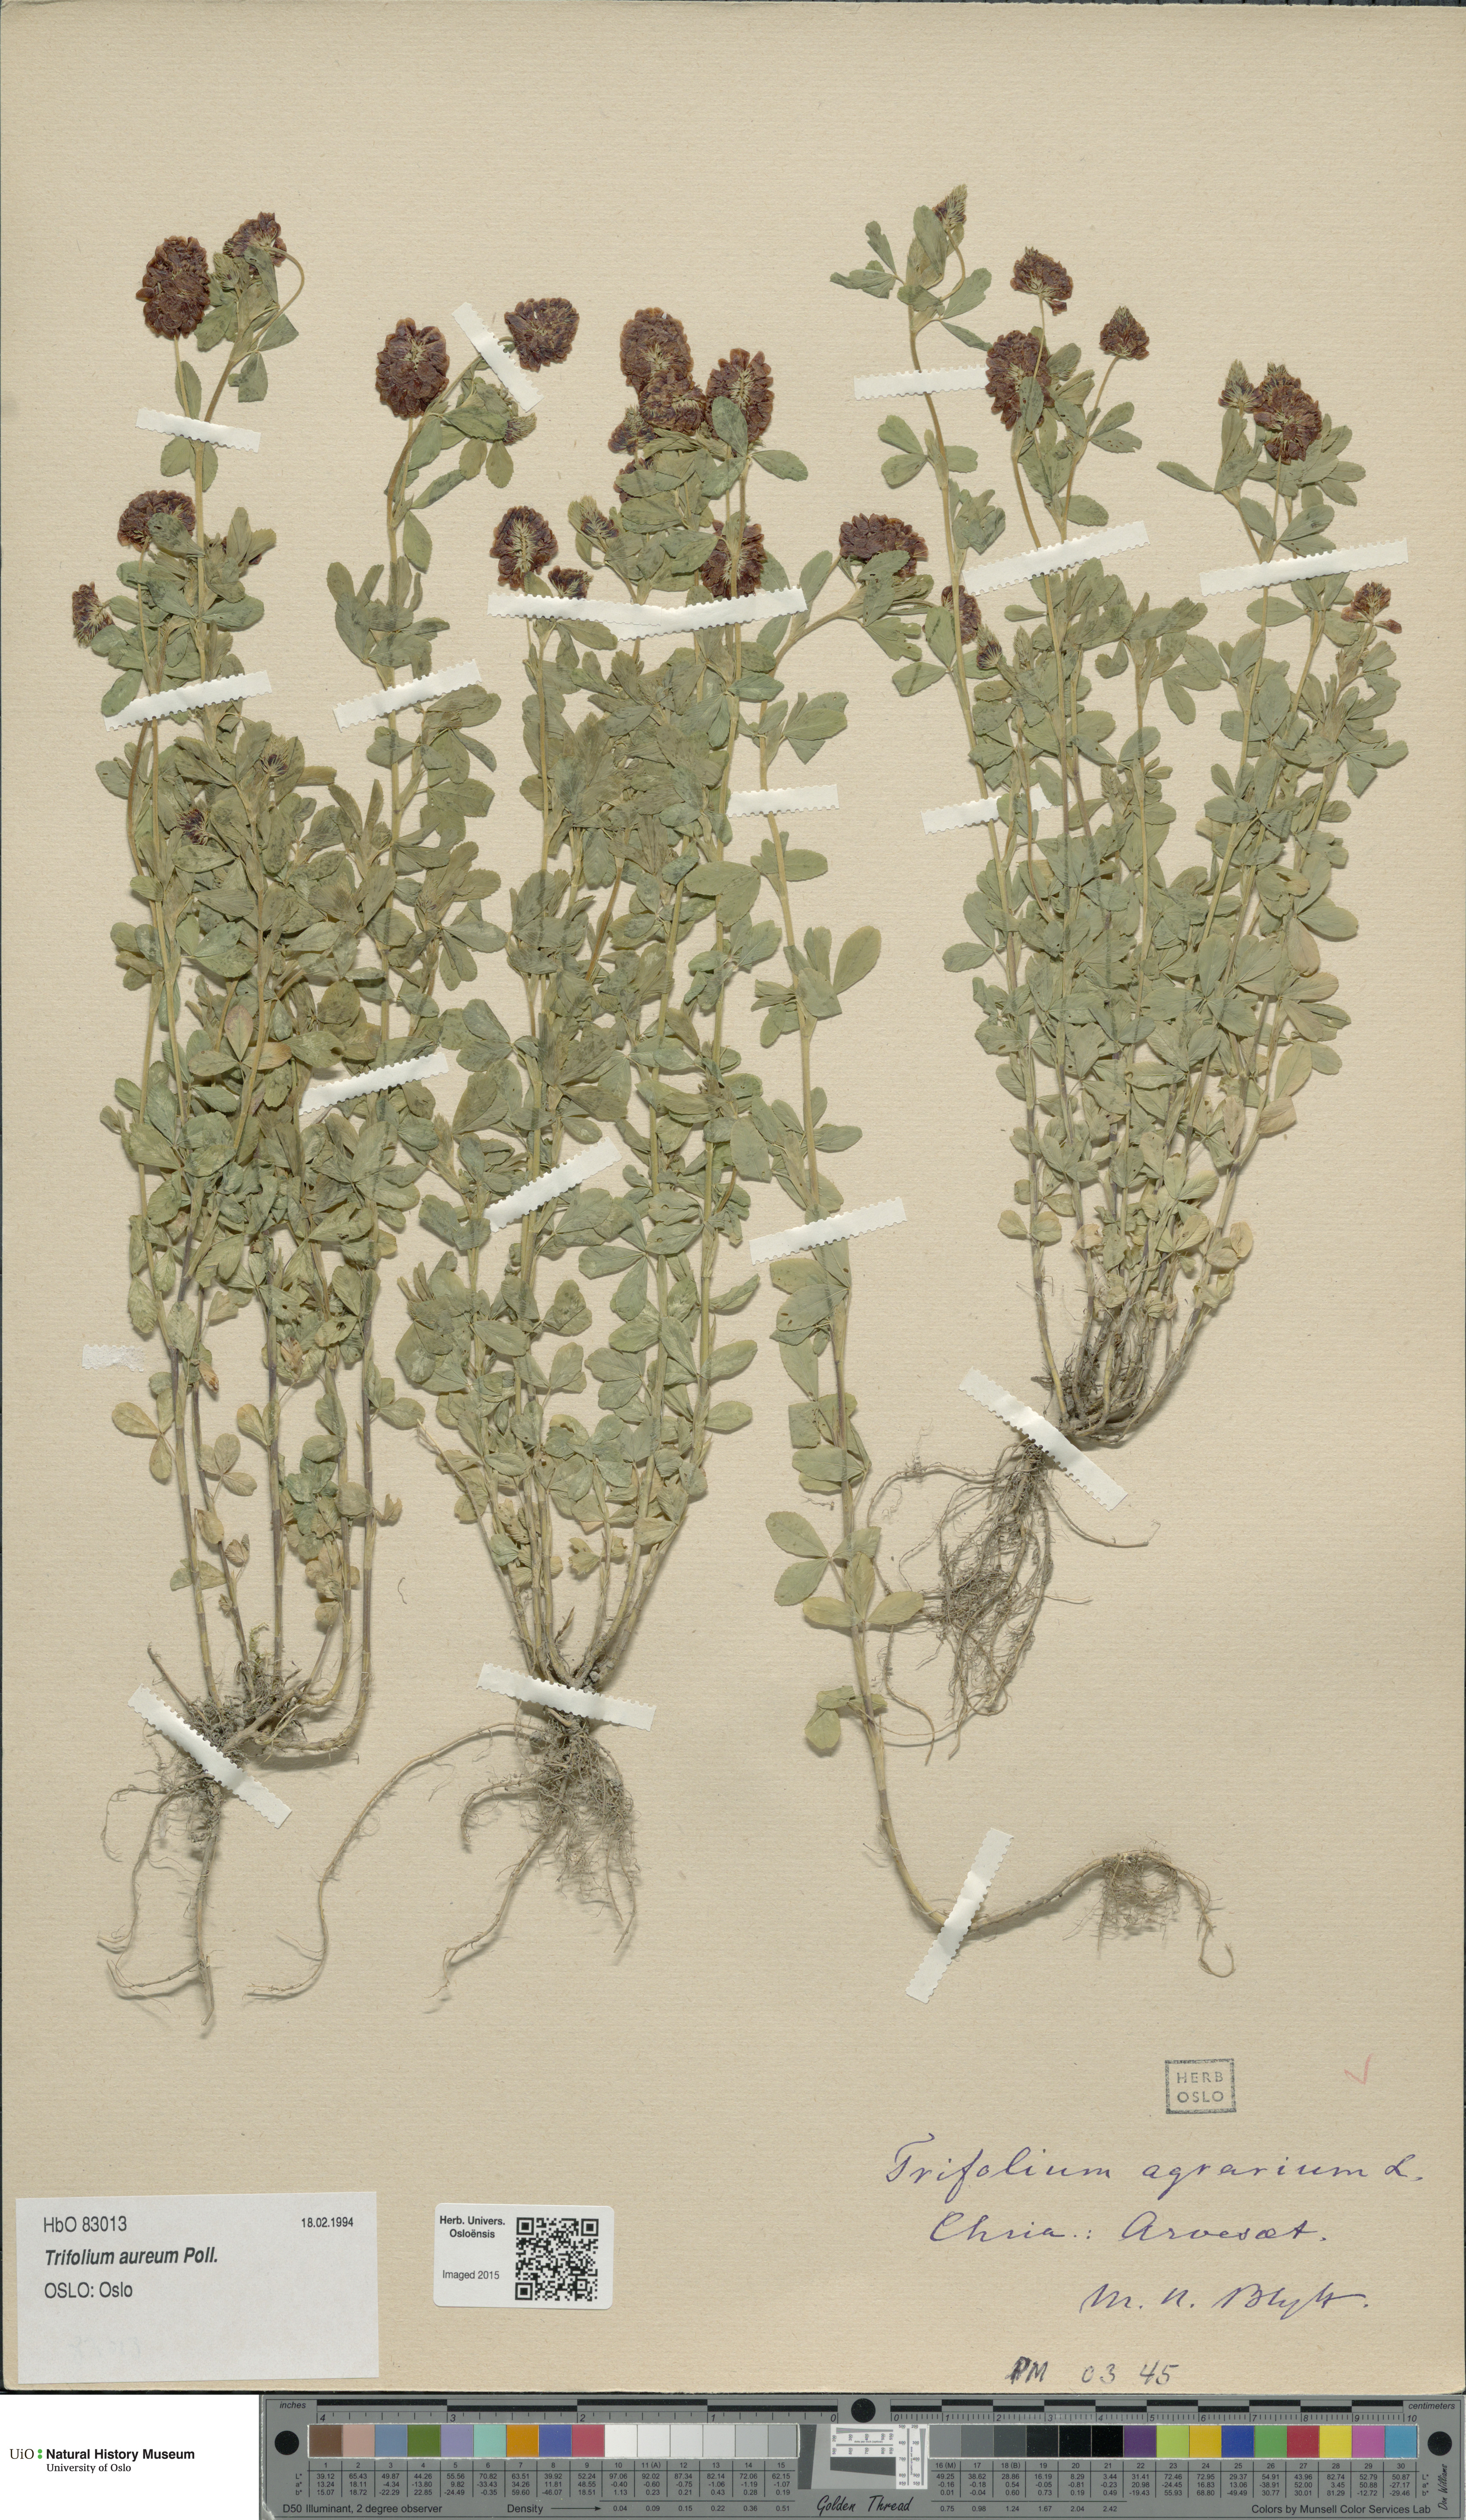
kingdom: Plantae
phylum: Tracheophyta
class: Magnoliopsida
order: Fabales
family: Fabaceae
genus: Trifolium
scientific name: Trifolium aureum
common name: Golden clover
